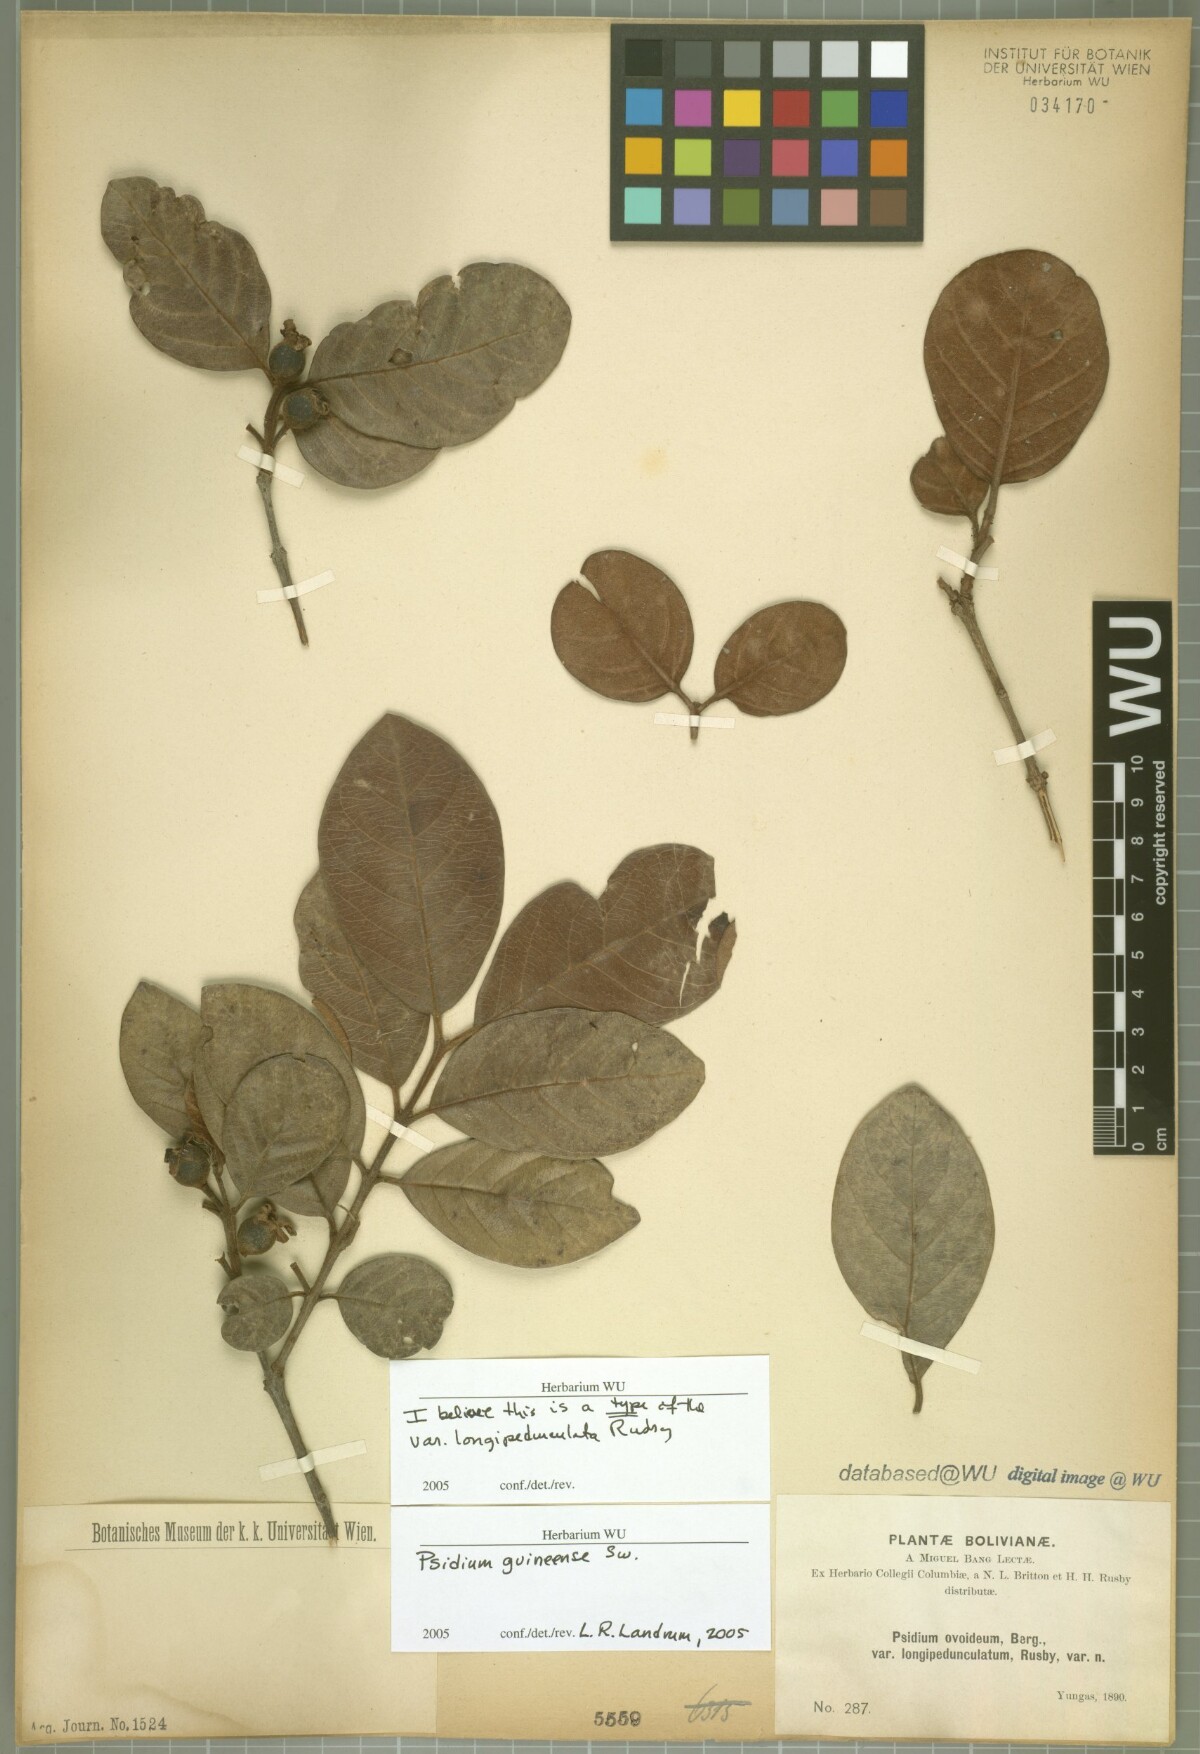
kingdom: Plantae
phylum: Tracheophyta
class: Magnoliopsida
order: Myrtales
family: Myrtaceae
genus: Psidium
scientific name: Psidium guineense
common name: Brazilian guava
